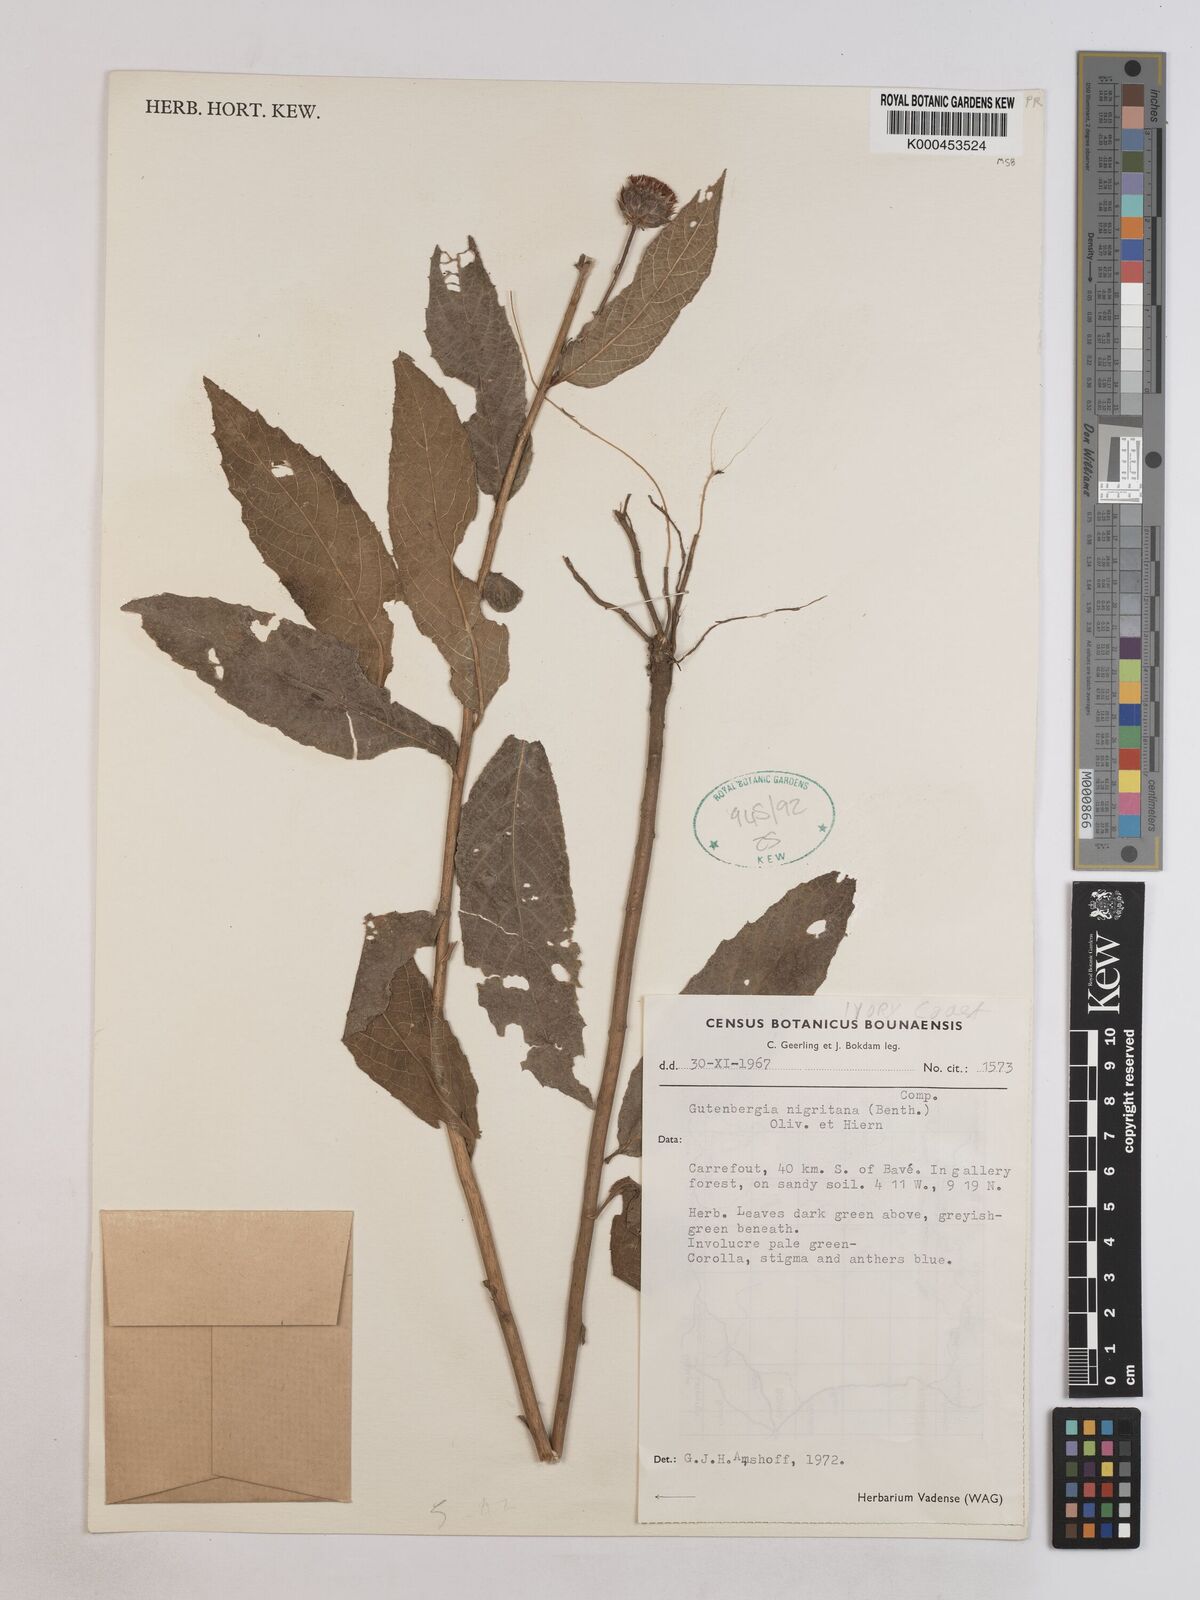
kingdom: Plantae
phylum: Tracheophyta
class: Magnoliopsida
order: Asterales
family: Asteraceae
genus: Kinghamia
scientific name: Kinghamia nigritana
